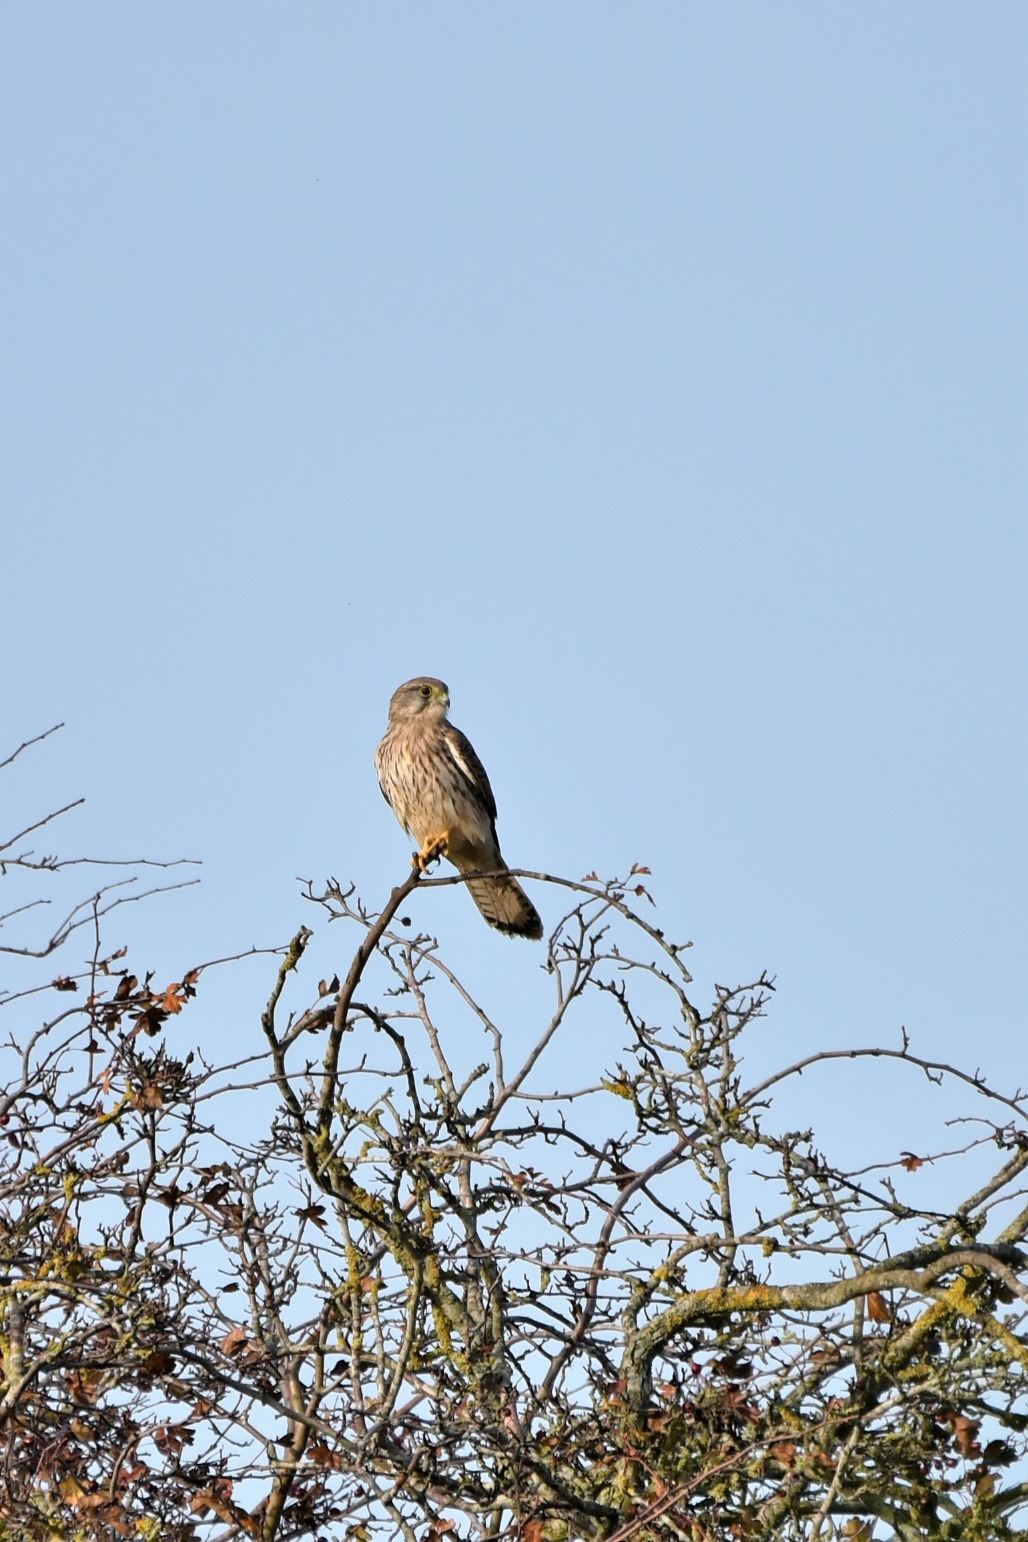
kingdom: Animalia
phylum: Chordata
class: Aves
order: Falconiformes
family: Falconidae
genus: Falco
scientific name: Falco tinnunculus
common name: Tårnfalk
